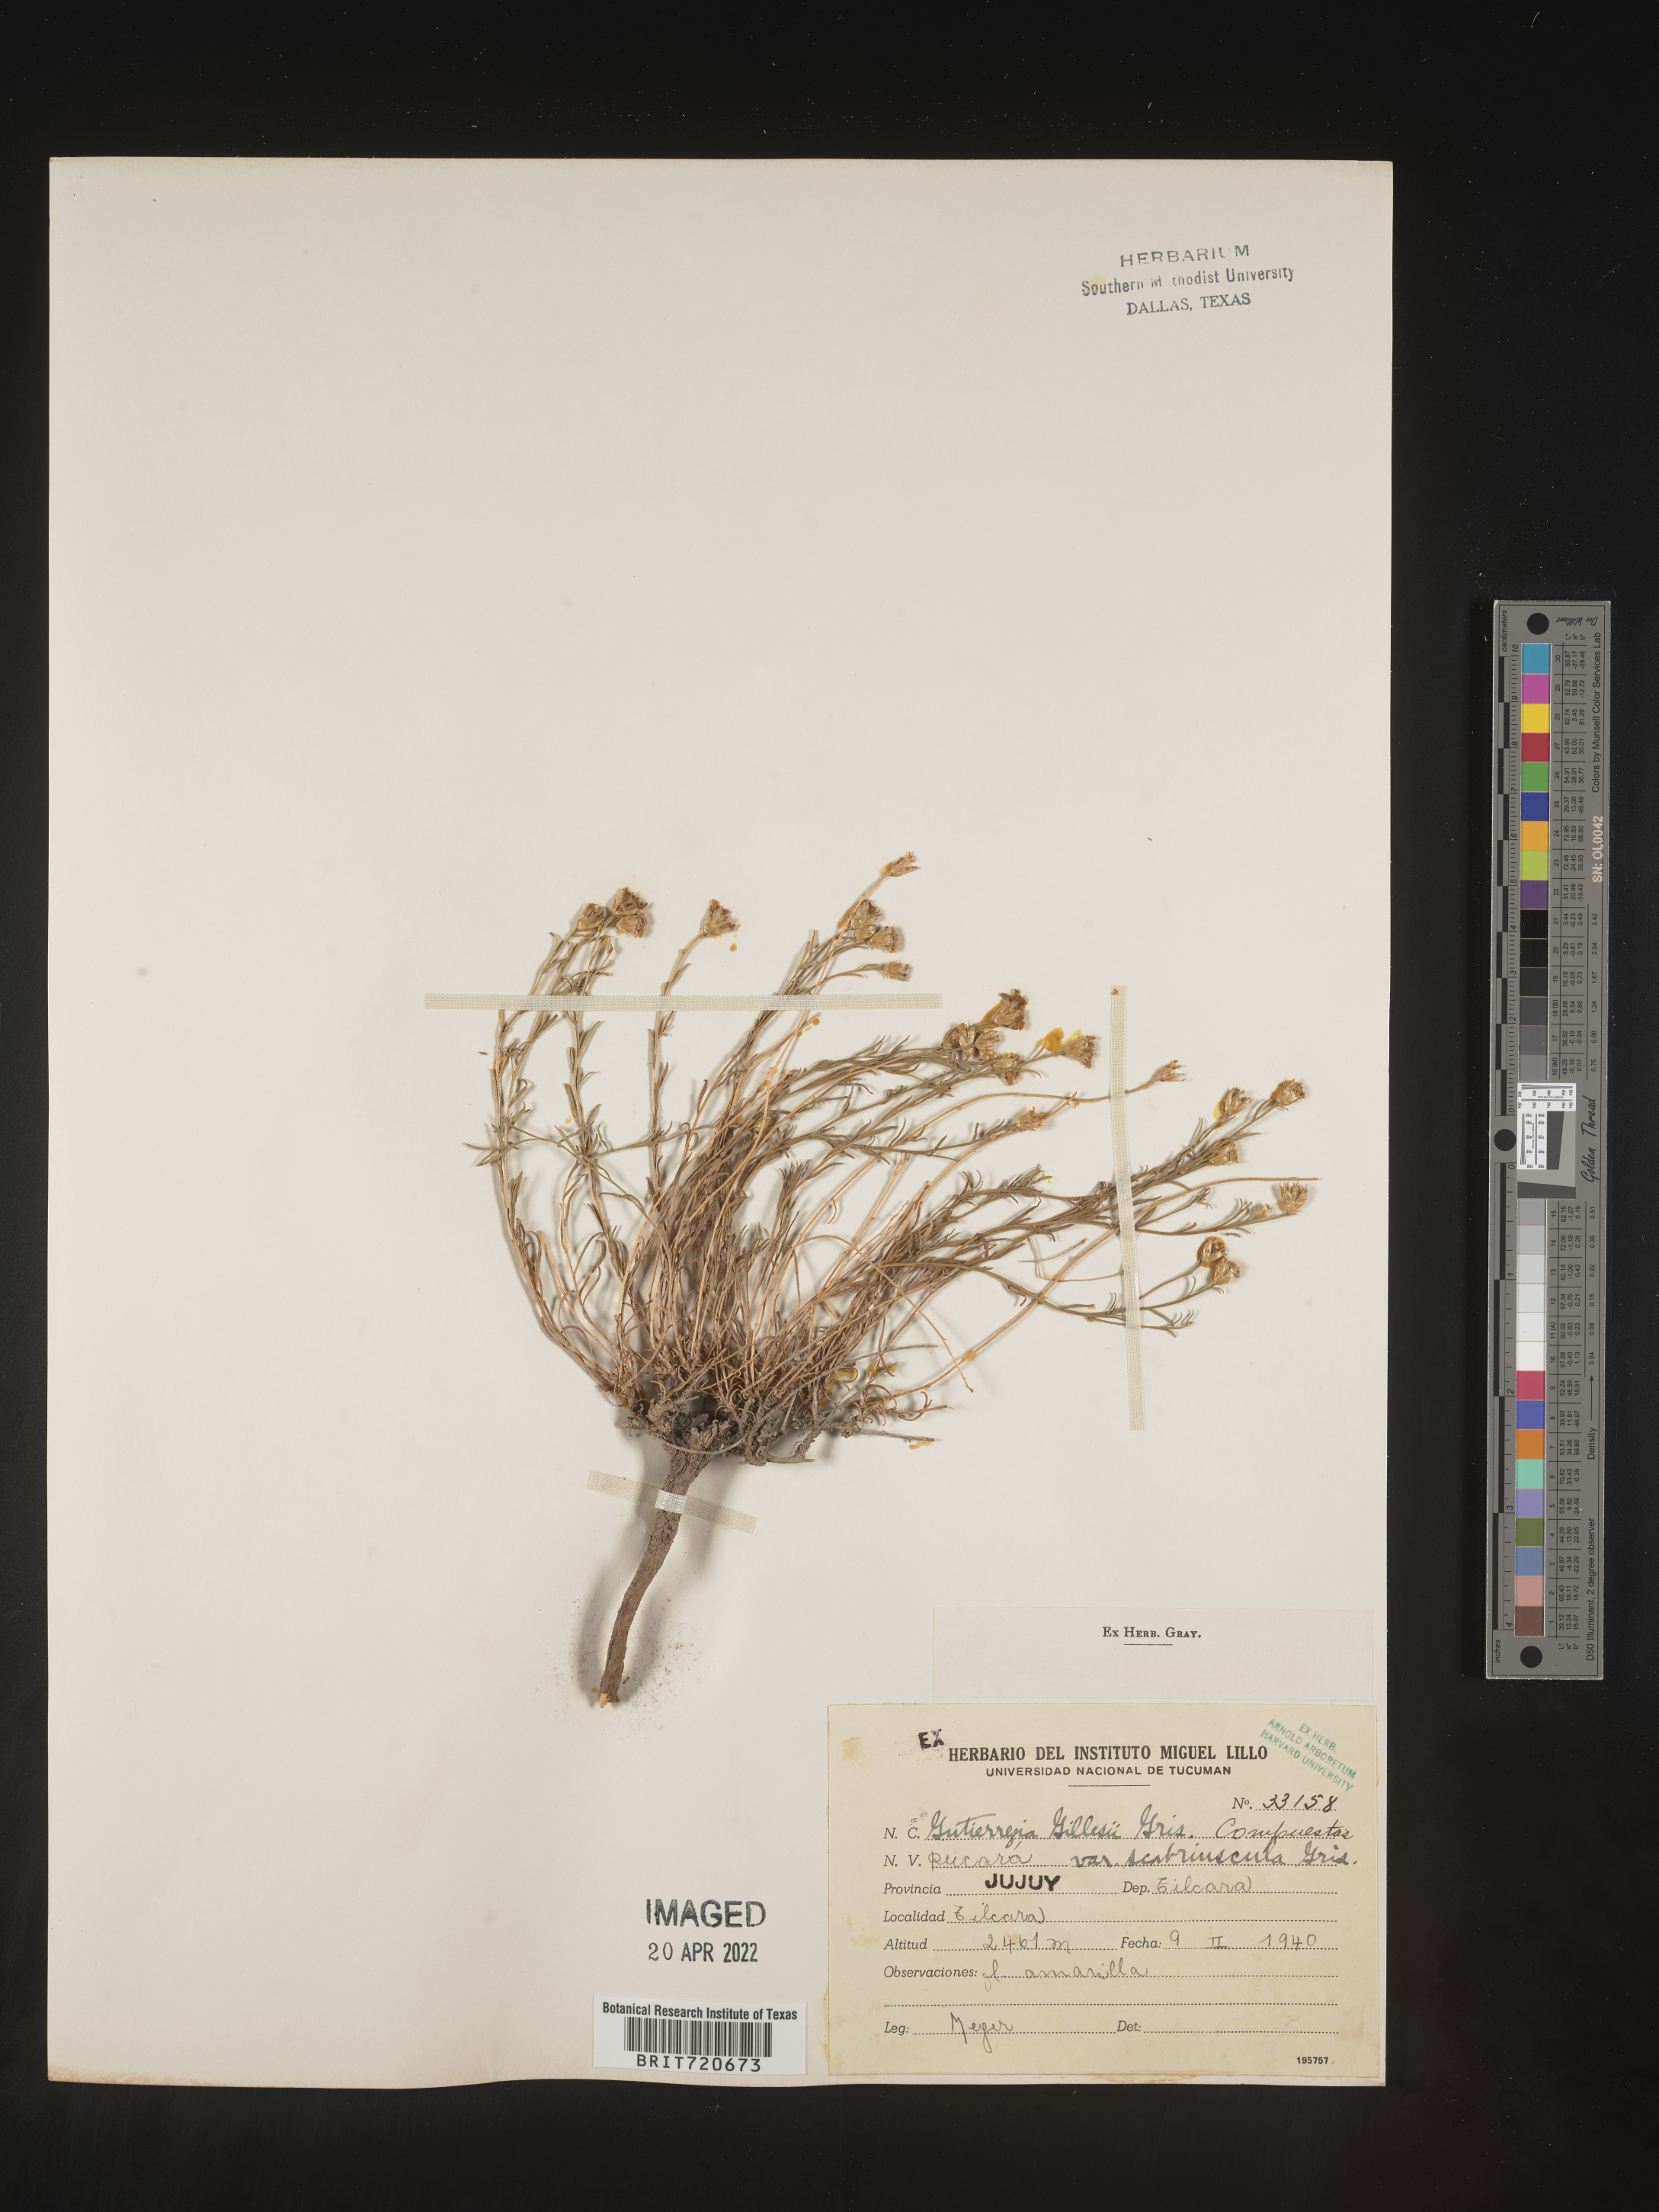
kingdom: Plantae
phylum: Tracheophyta
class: Magnoliopsida
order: Asterales
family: Asteraceae
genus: Gutierrezia
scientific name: Gutierrezia
